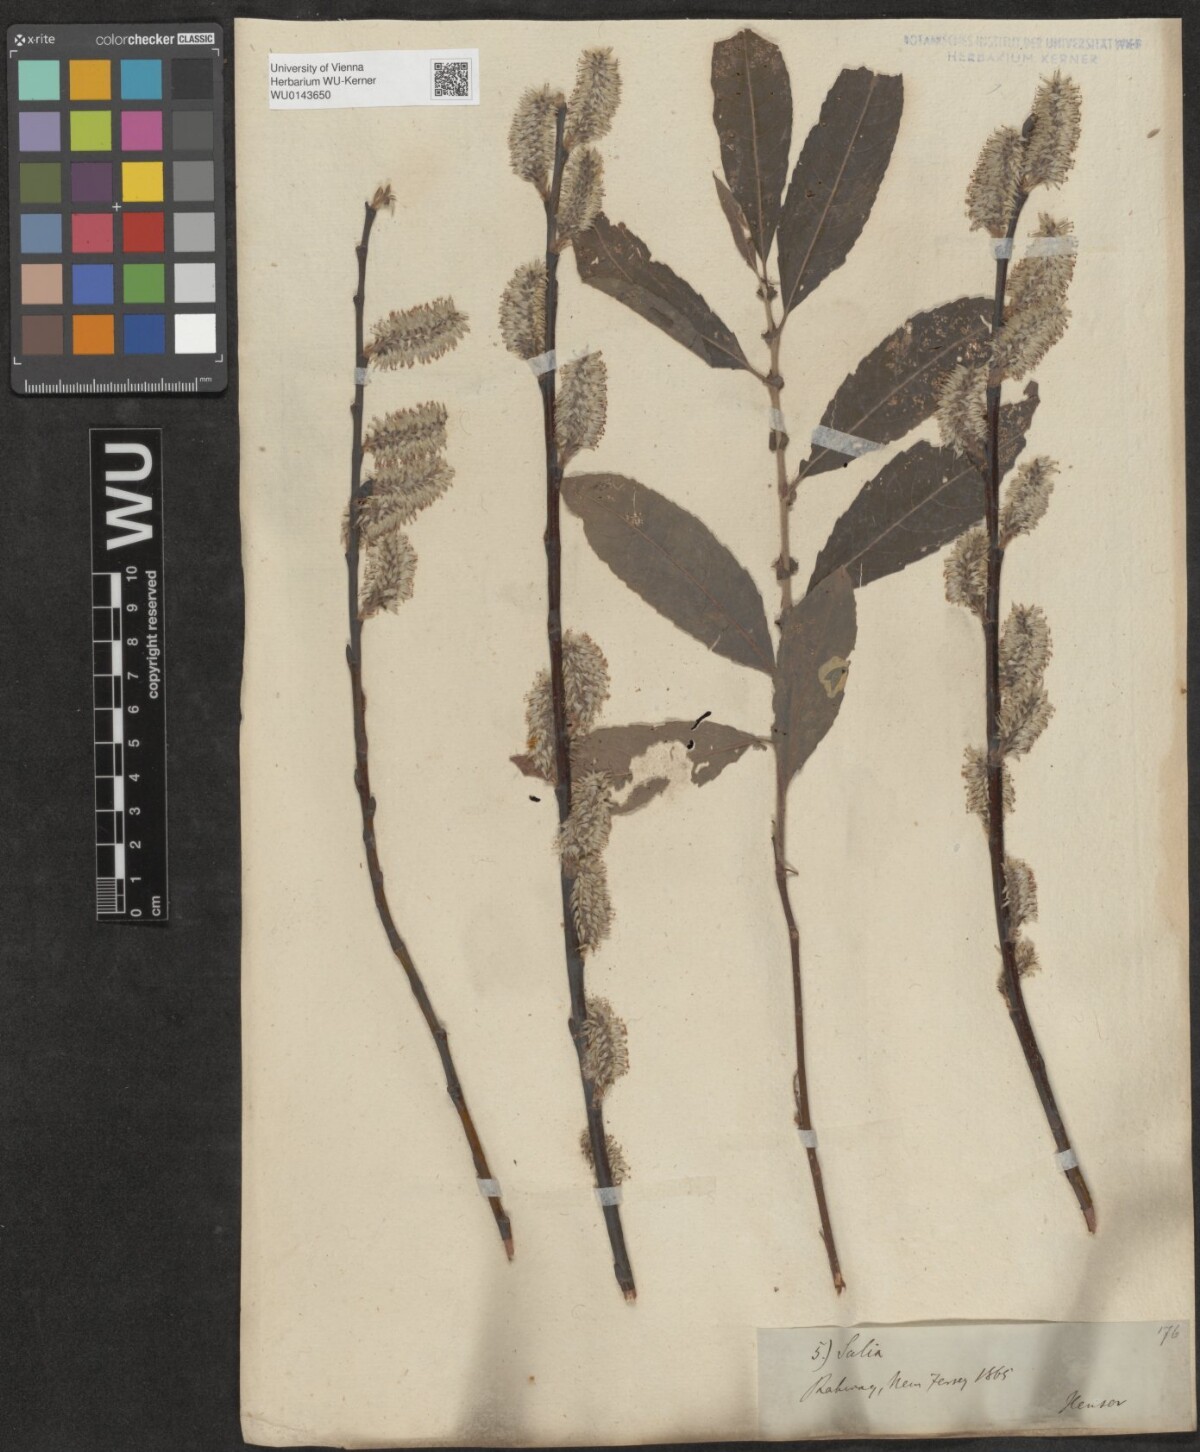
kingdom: Plantae
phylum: Tracheophyta
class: Magnoliopsida
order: Malpighiales
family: Salicaceae
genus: Salix
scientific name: Salix
